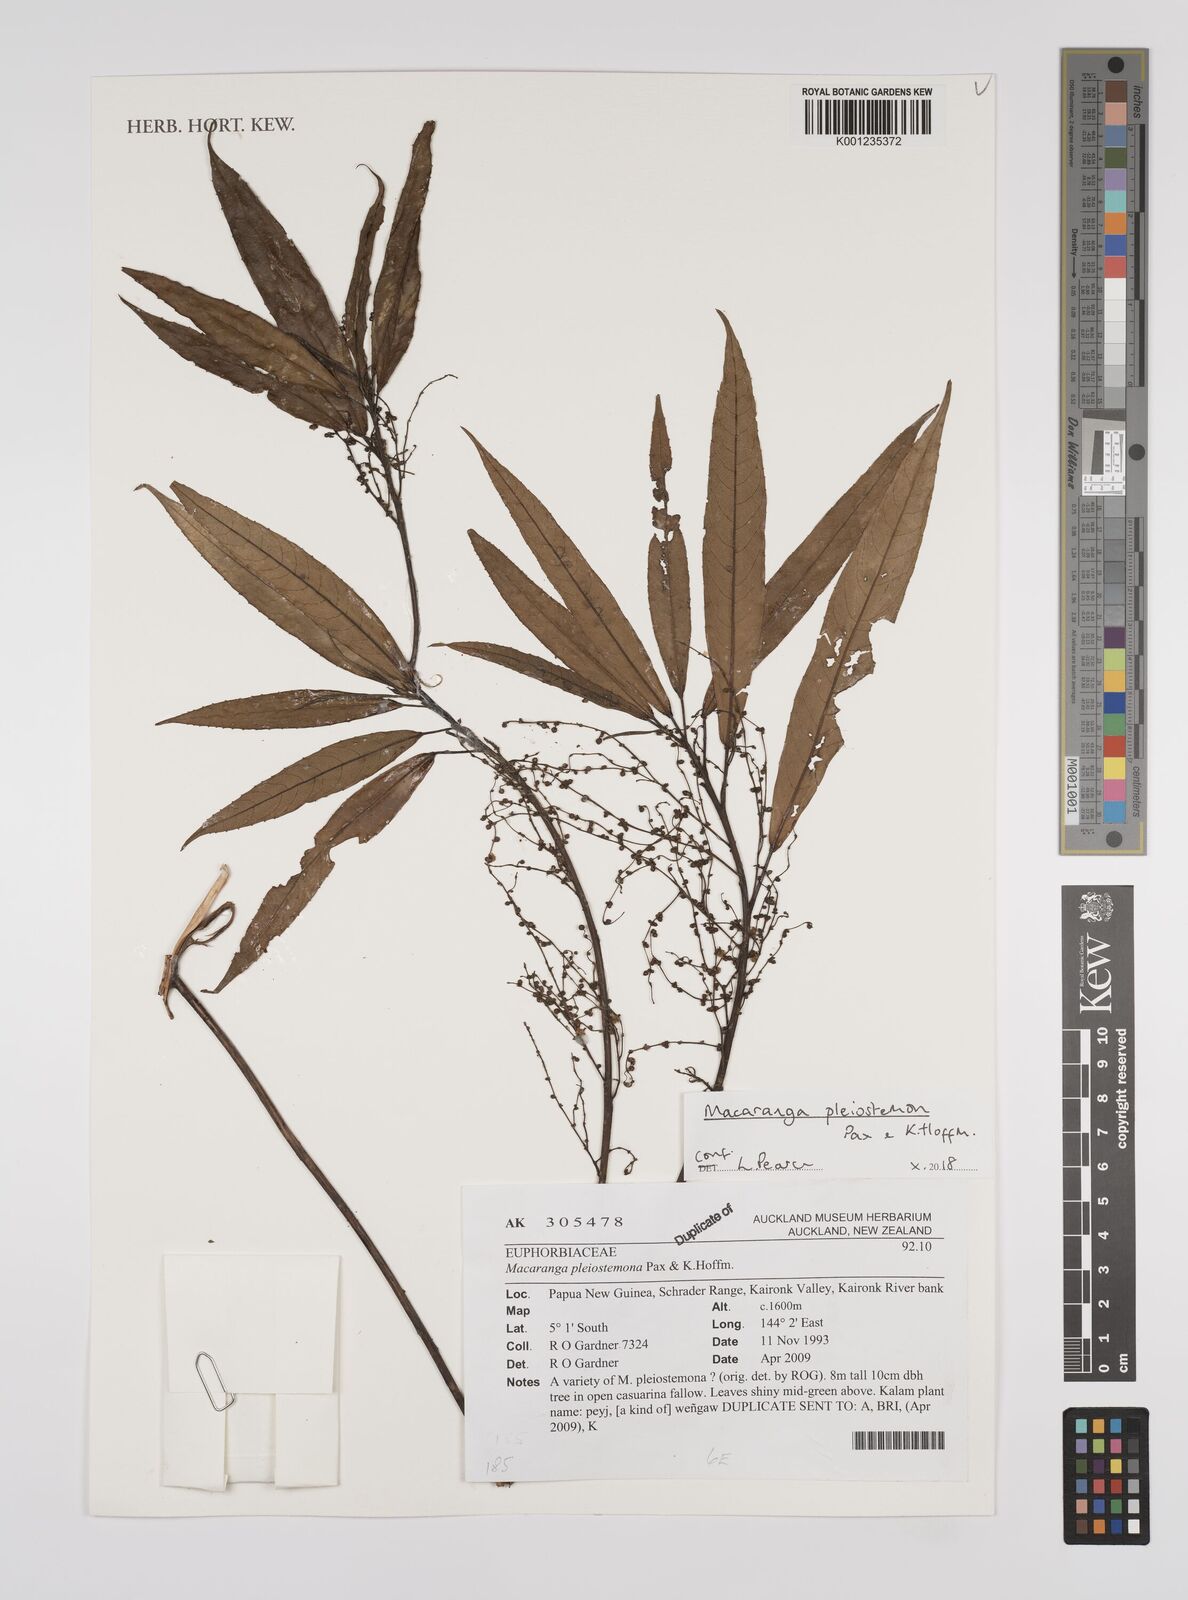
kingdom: Plantae
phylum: Tracheophyta
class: Magnoliopsida
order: Malpighiales
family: Euphorbiaceae
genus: Macaranga
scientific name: Macaranga pleiostemon
